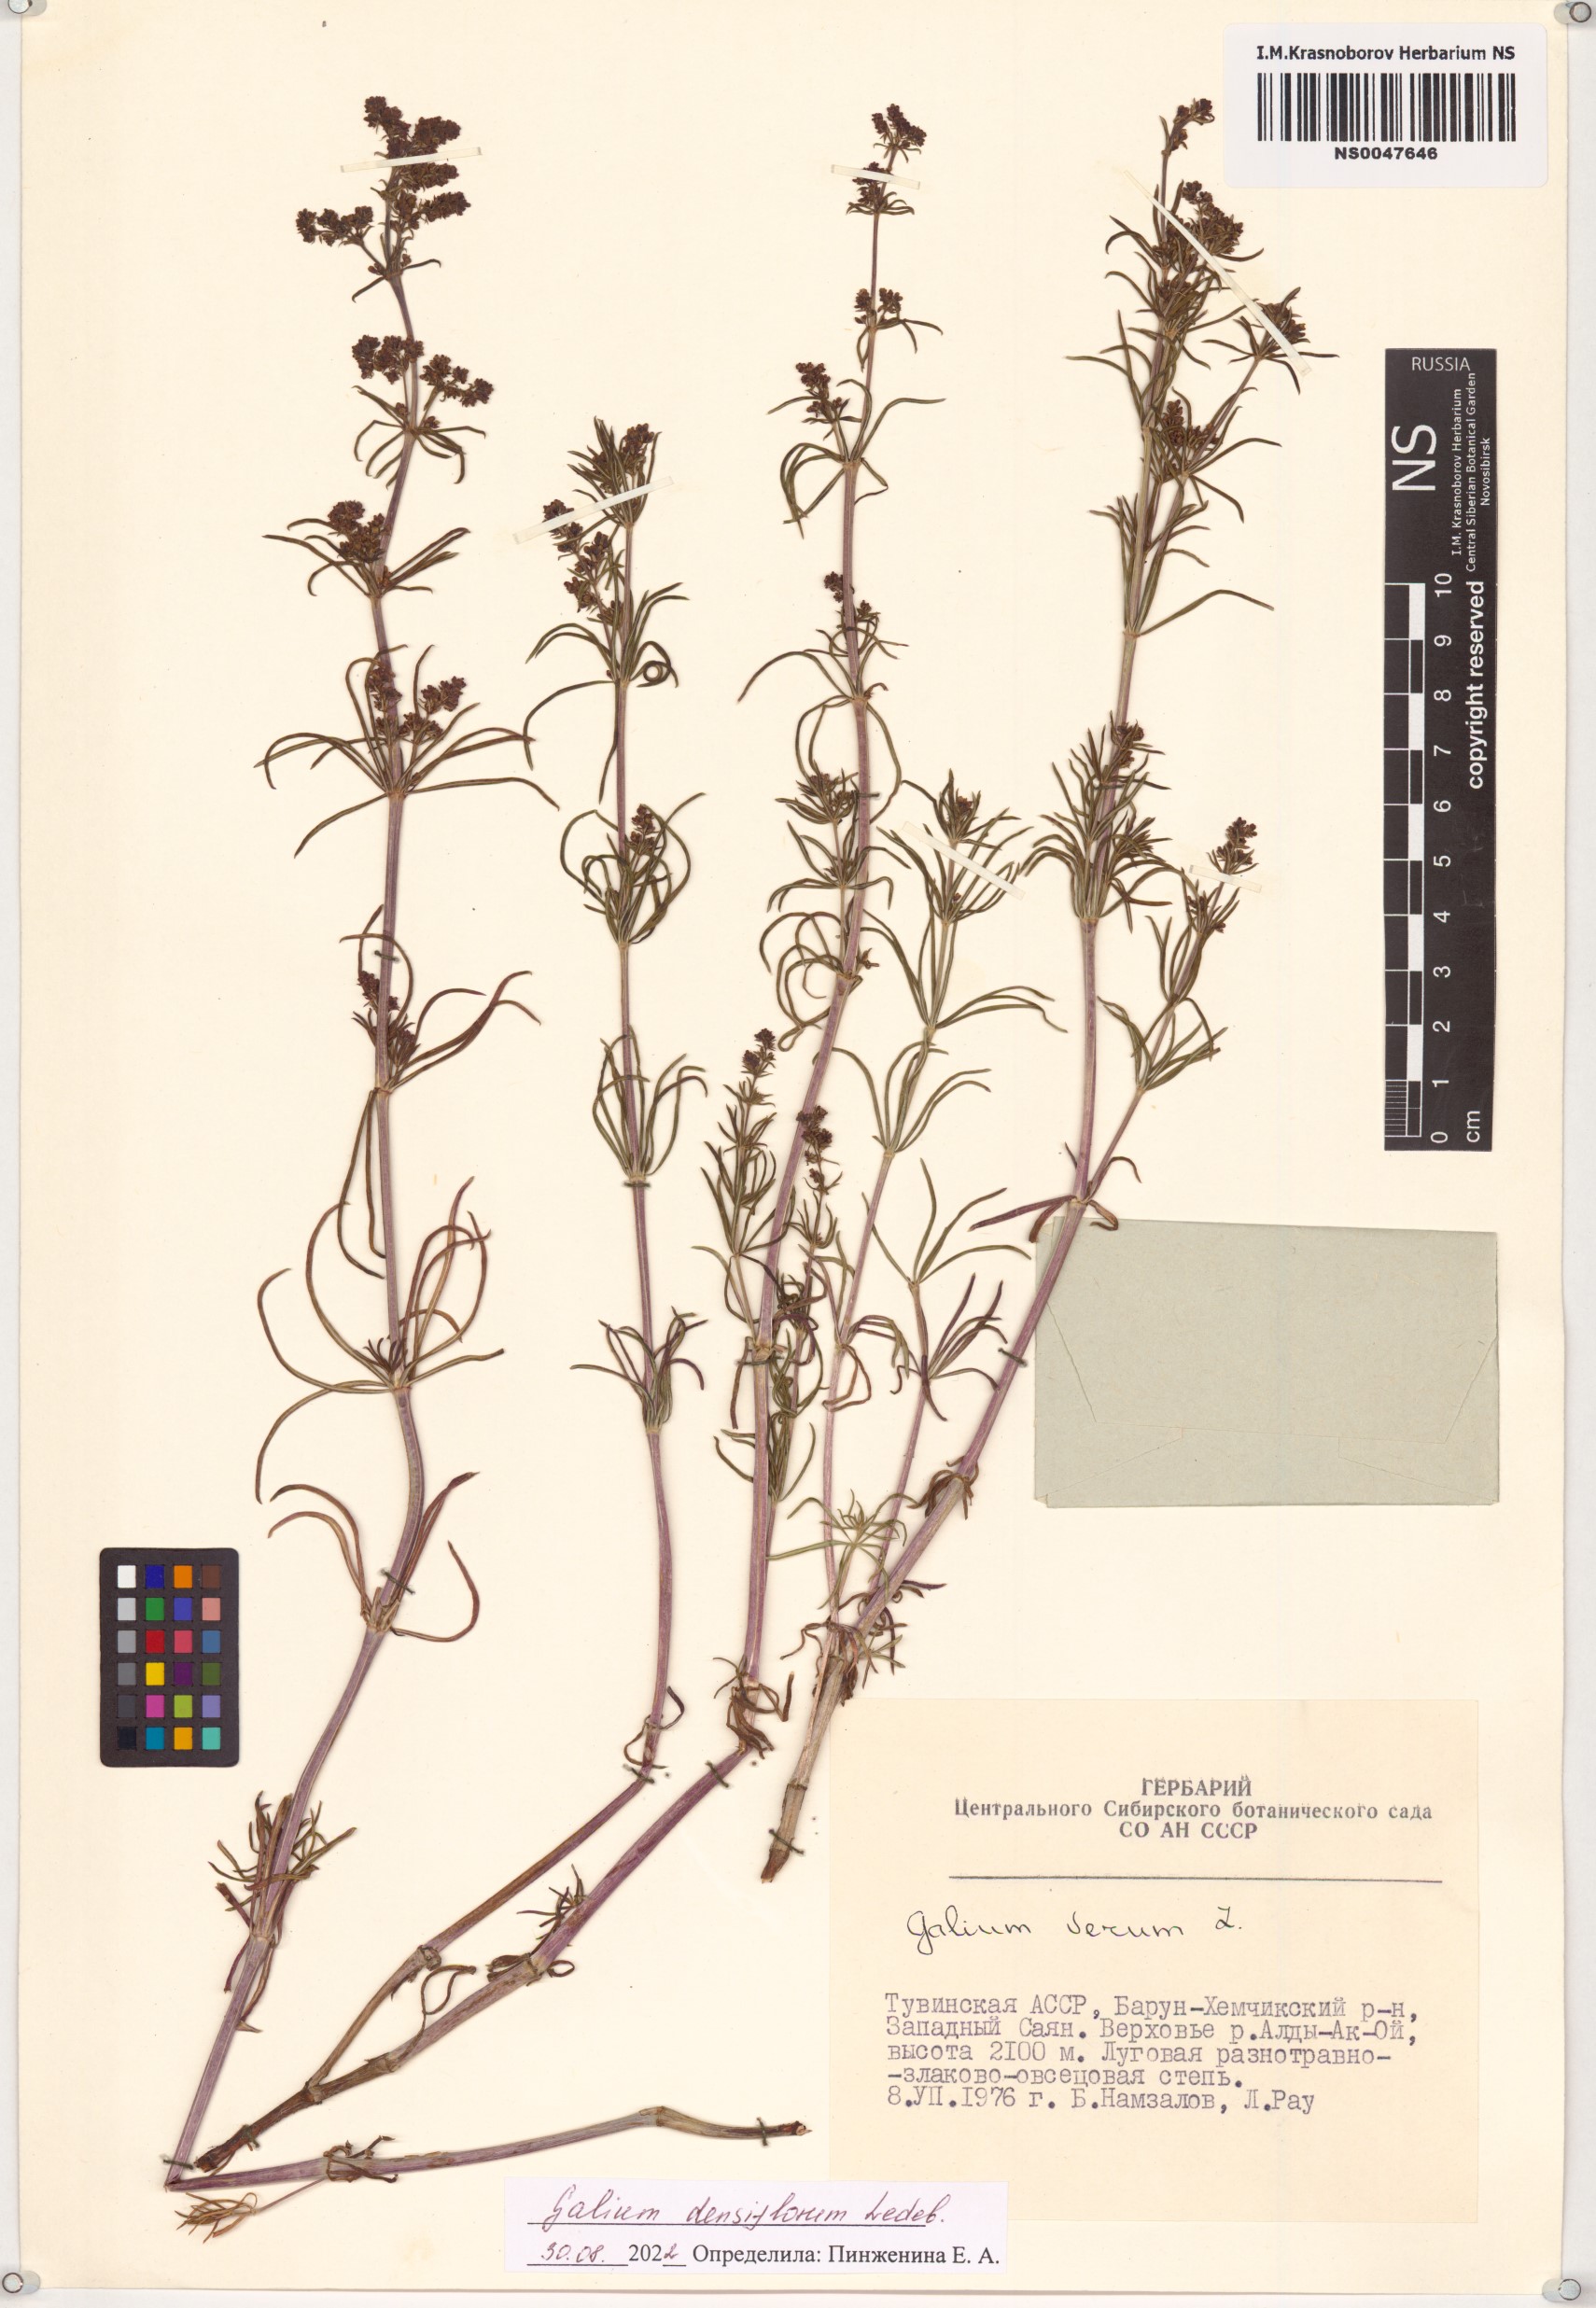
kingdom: Plantae
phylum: Tracheophyta
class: Magnoliopsida
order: Gentianales
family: Rubiaceae
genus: Galium
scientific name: Galium densiflorum
